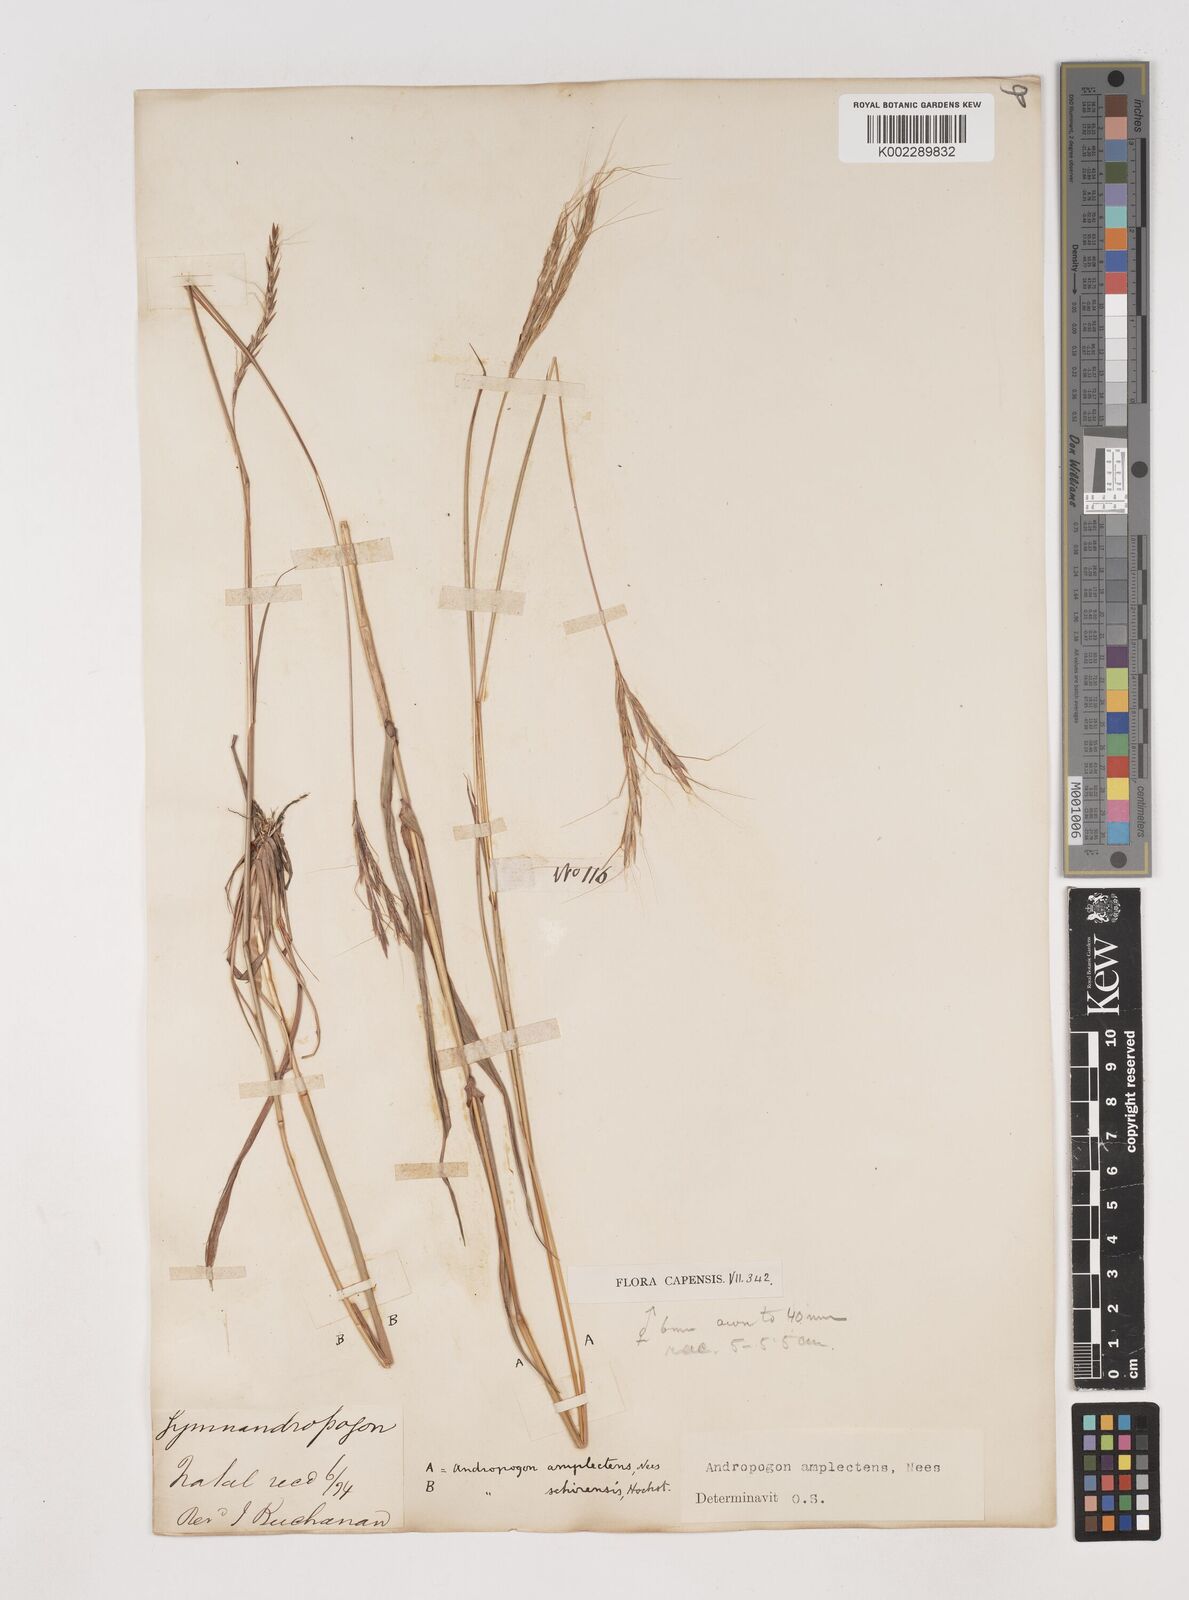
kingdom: Plantae
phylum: Tracheophyta
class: Liliopsida
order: Poales
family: Poaceae
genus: Diheteropogon
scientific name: Diheteropogon amplectens
